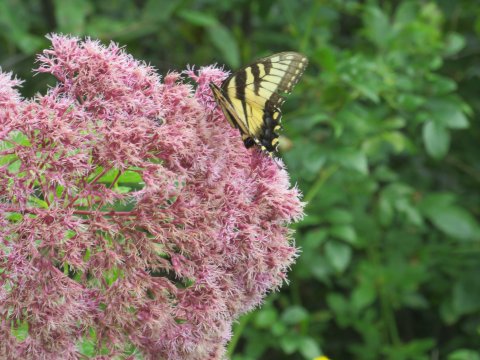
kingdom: Animalia
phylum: Arthropoda
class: Insecta
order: Lepidoptera
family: Papilionidae
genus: Pterourus
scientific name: Pterourus glaucus
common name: Eastern Tiger Swallowtail
